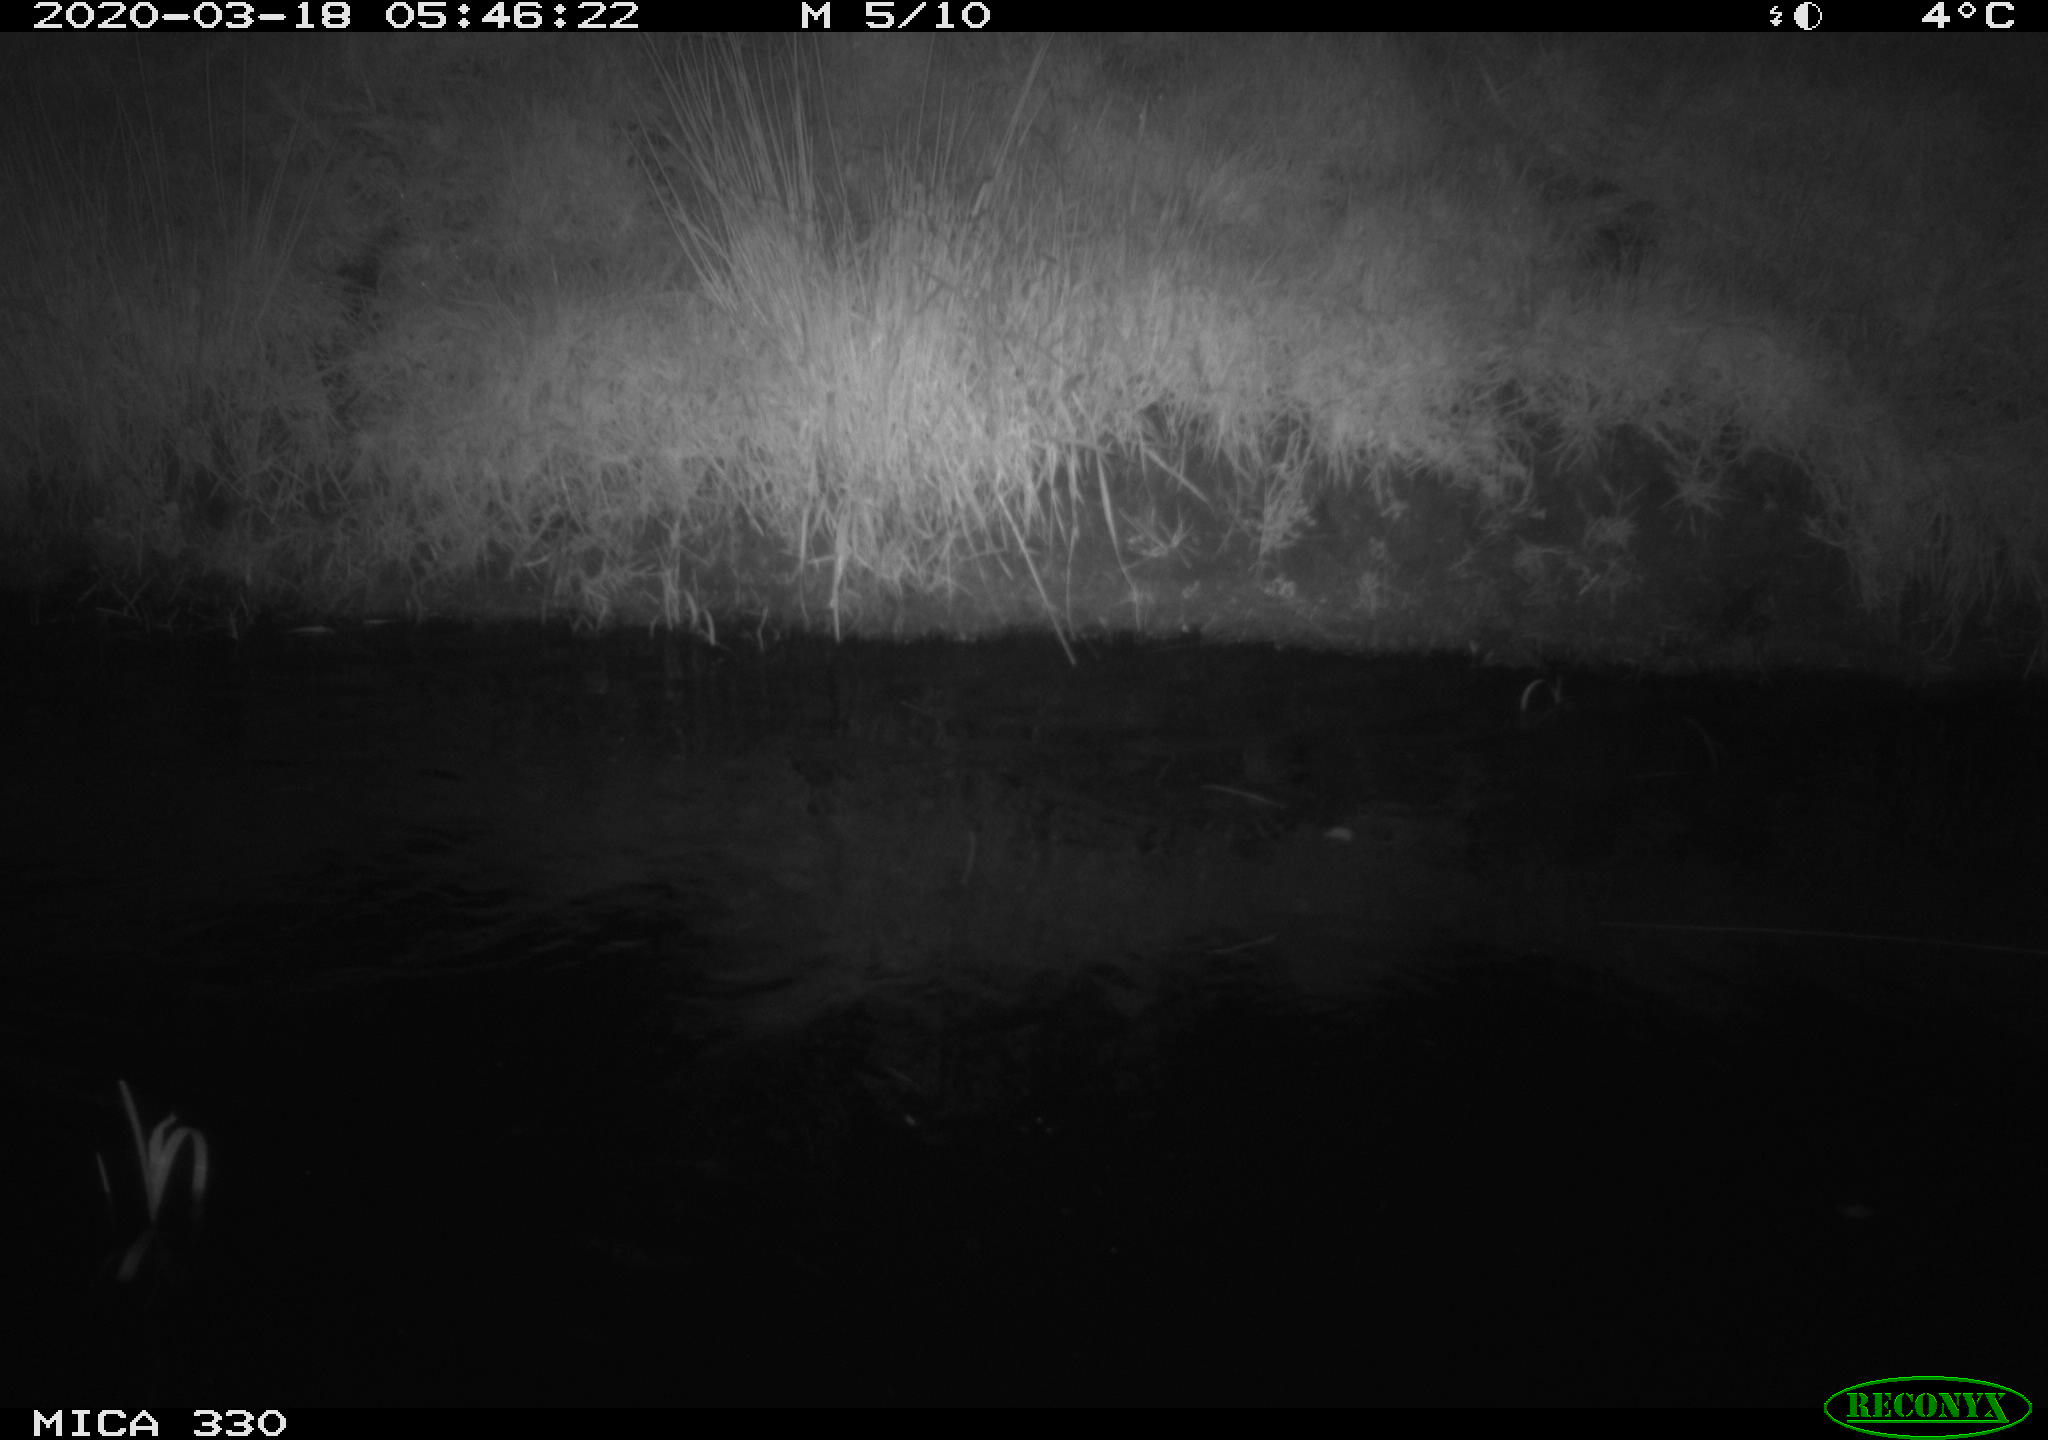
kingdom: Animalia
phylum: Chordata
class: Aves
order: Anseriformes
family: Anatidae
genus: Anas
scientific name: Anas platyrhynchos
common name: Mallard
